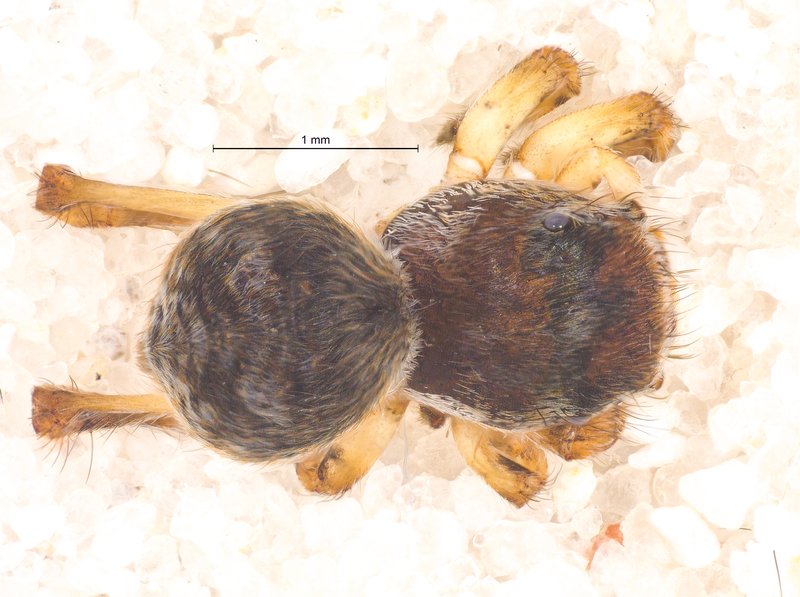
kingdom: Animalia
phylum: Arthropoda
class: Arachnida
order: Araneae
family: Salticidae
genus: Attulus
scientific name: Attulus saltator
